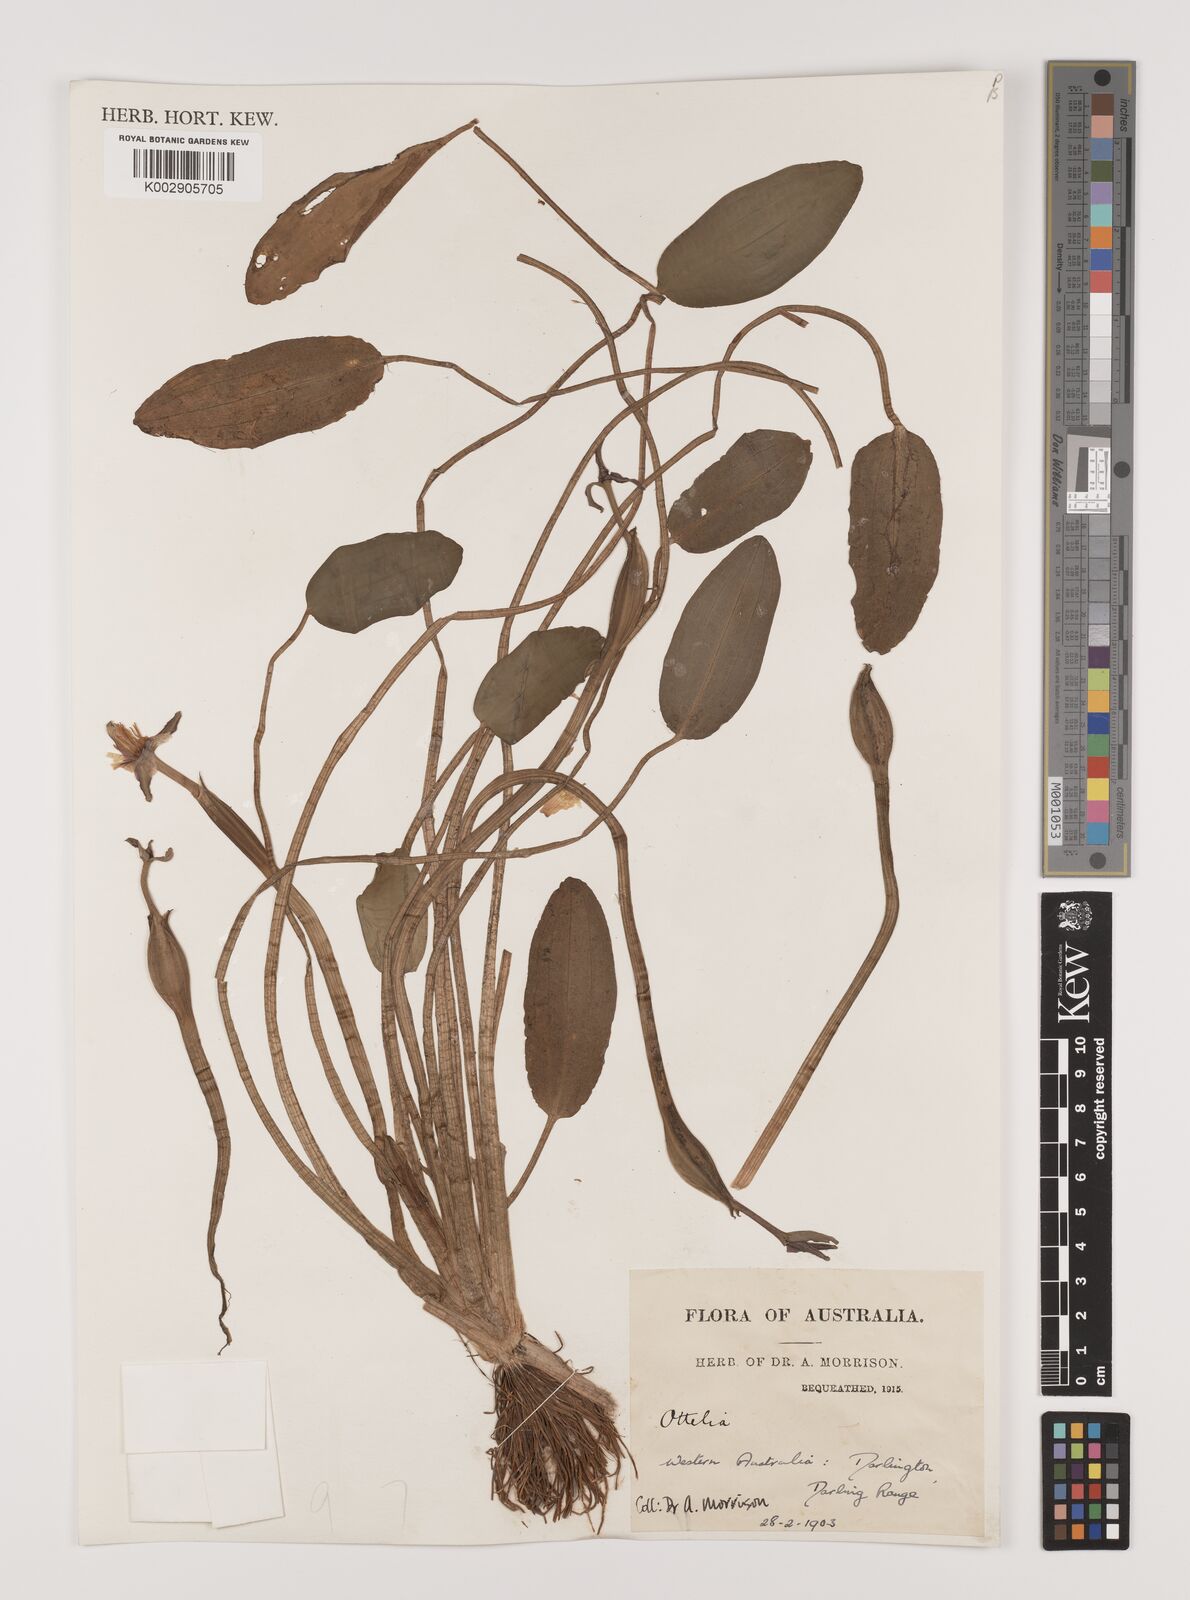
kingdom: Plantae
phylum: Tracheophyta
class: Liliopsida
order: Alismatales
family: Hydrocharitaceae
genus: Ottelia
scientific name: Ottelia ovalifolia
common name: Swamp-lily
